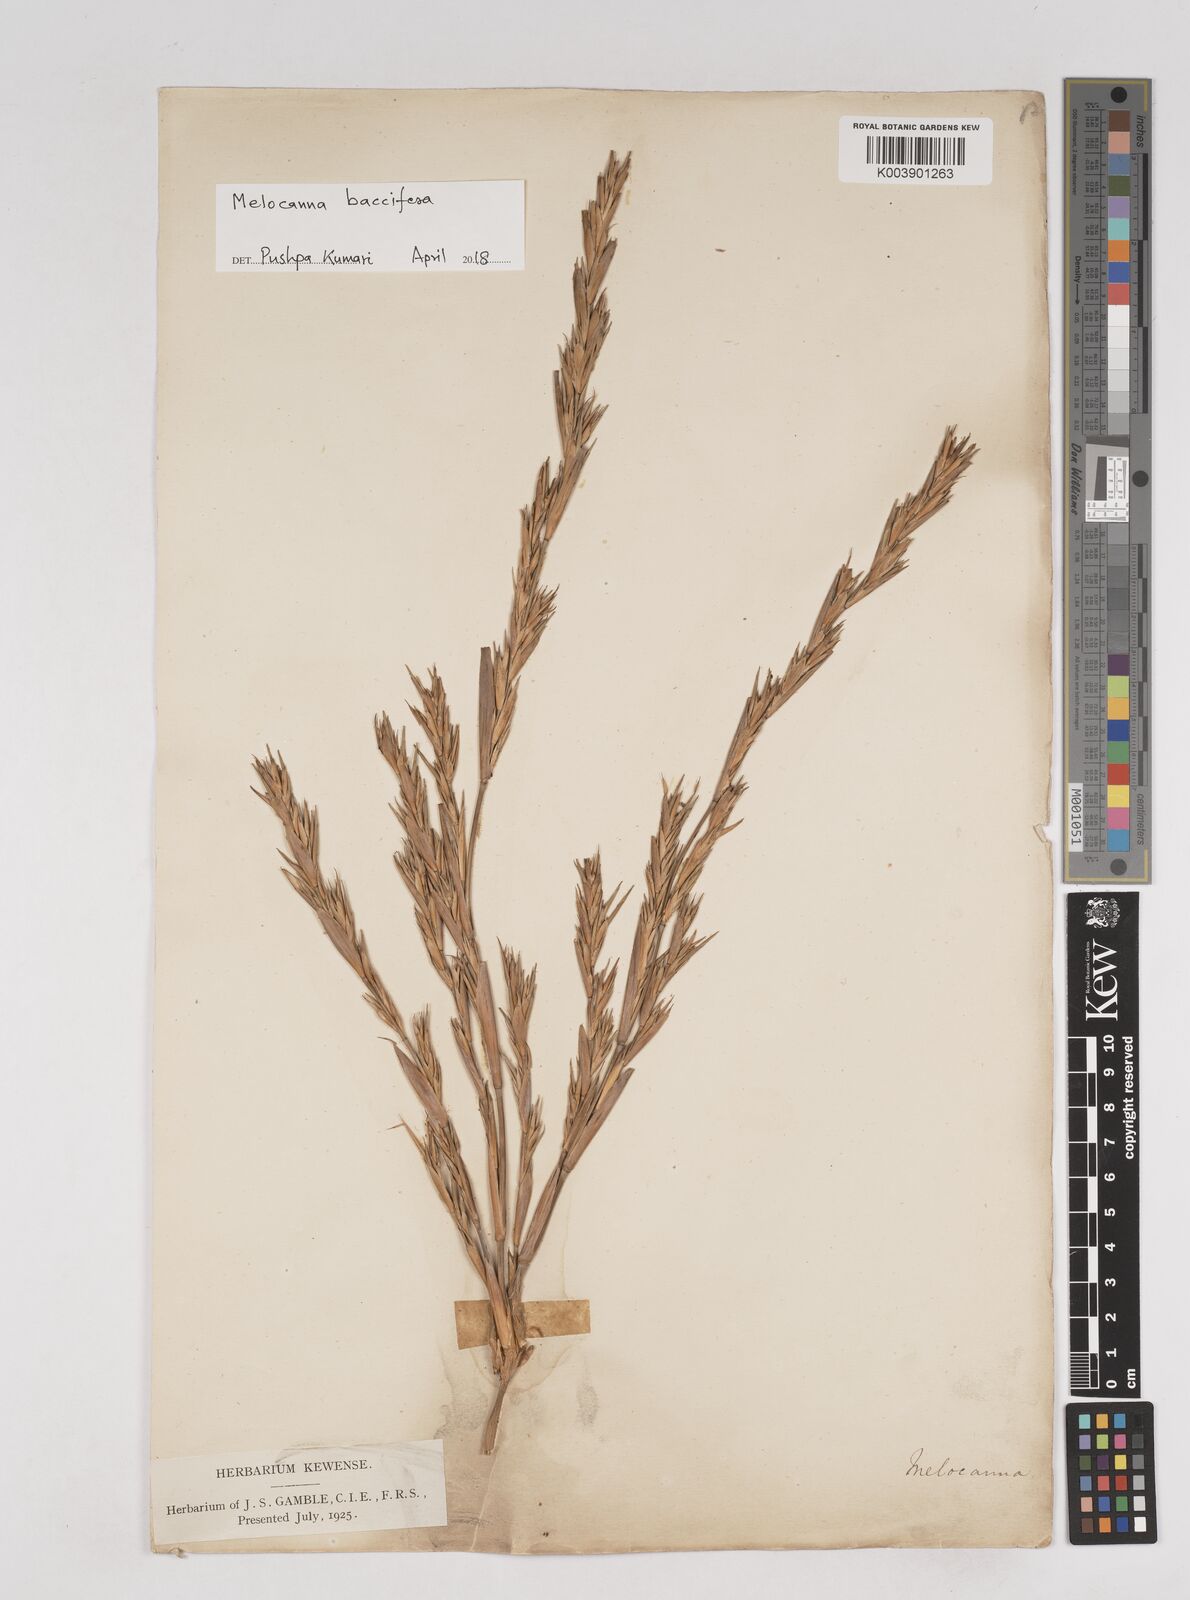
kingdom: Plantae
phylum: Tracheophyta
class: Liliopsida
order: Poales
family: Poaceae
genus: Melocanna
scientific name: Melocanna baccifera
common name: Berry bamboo
